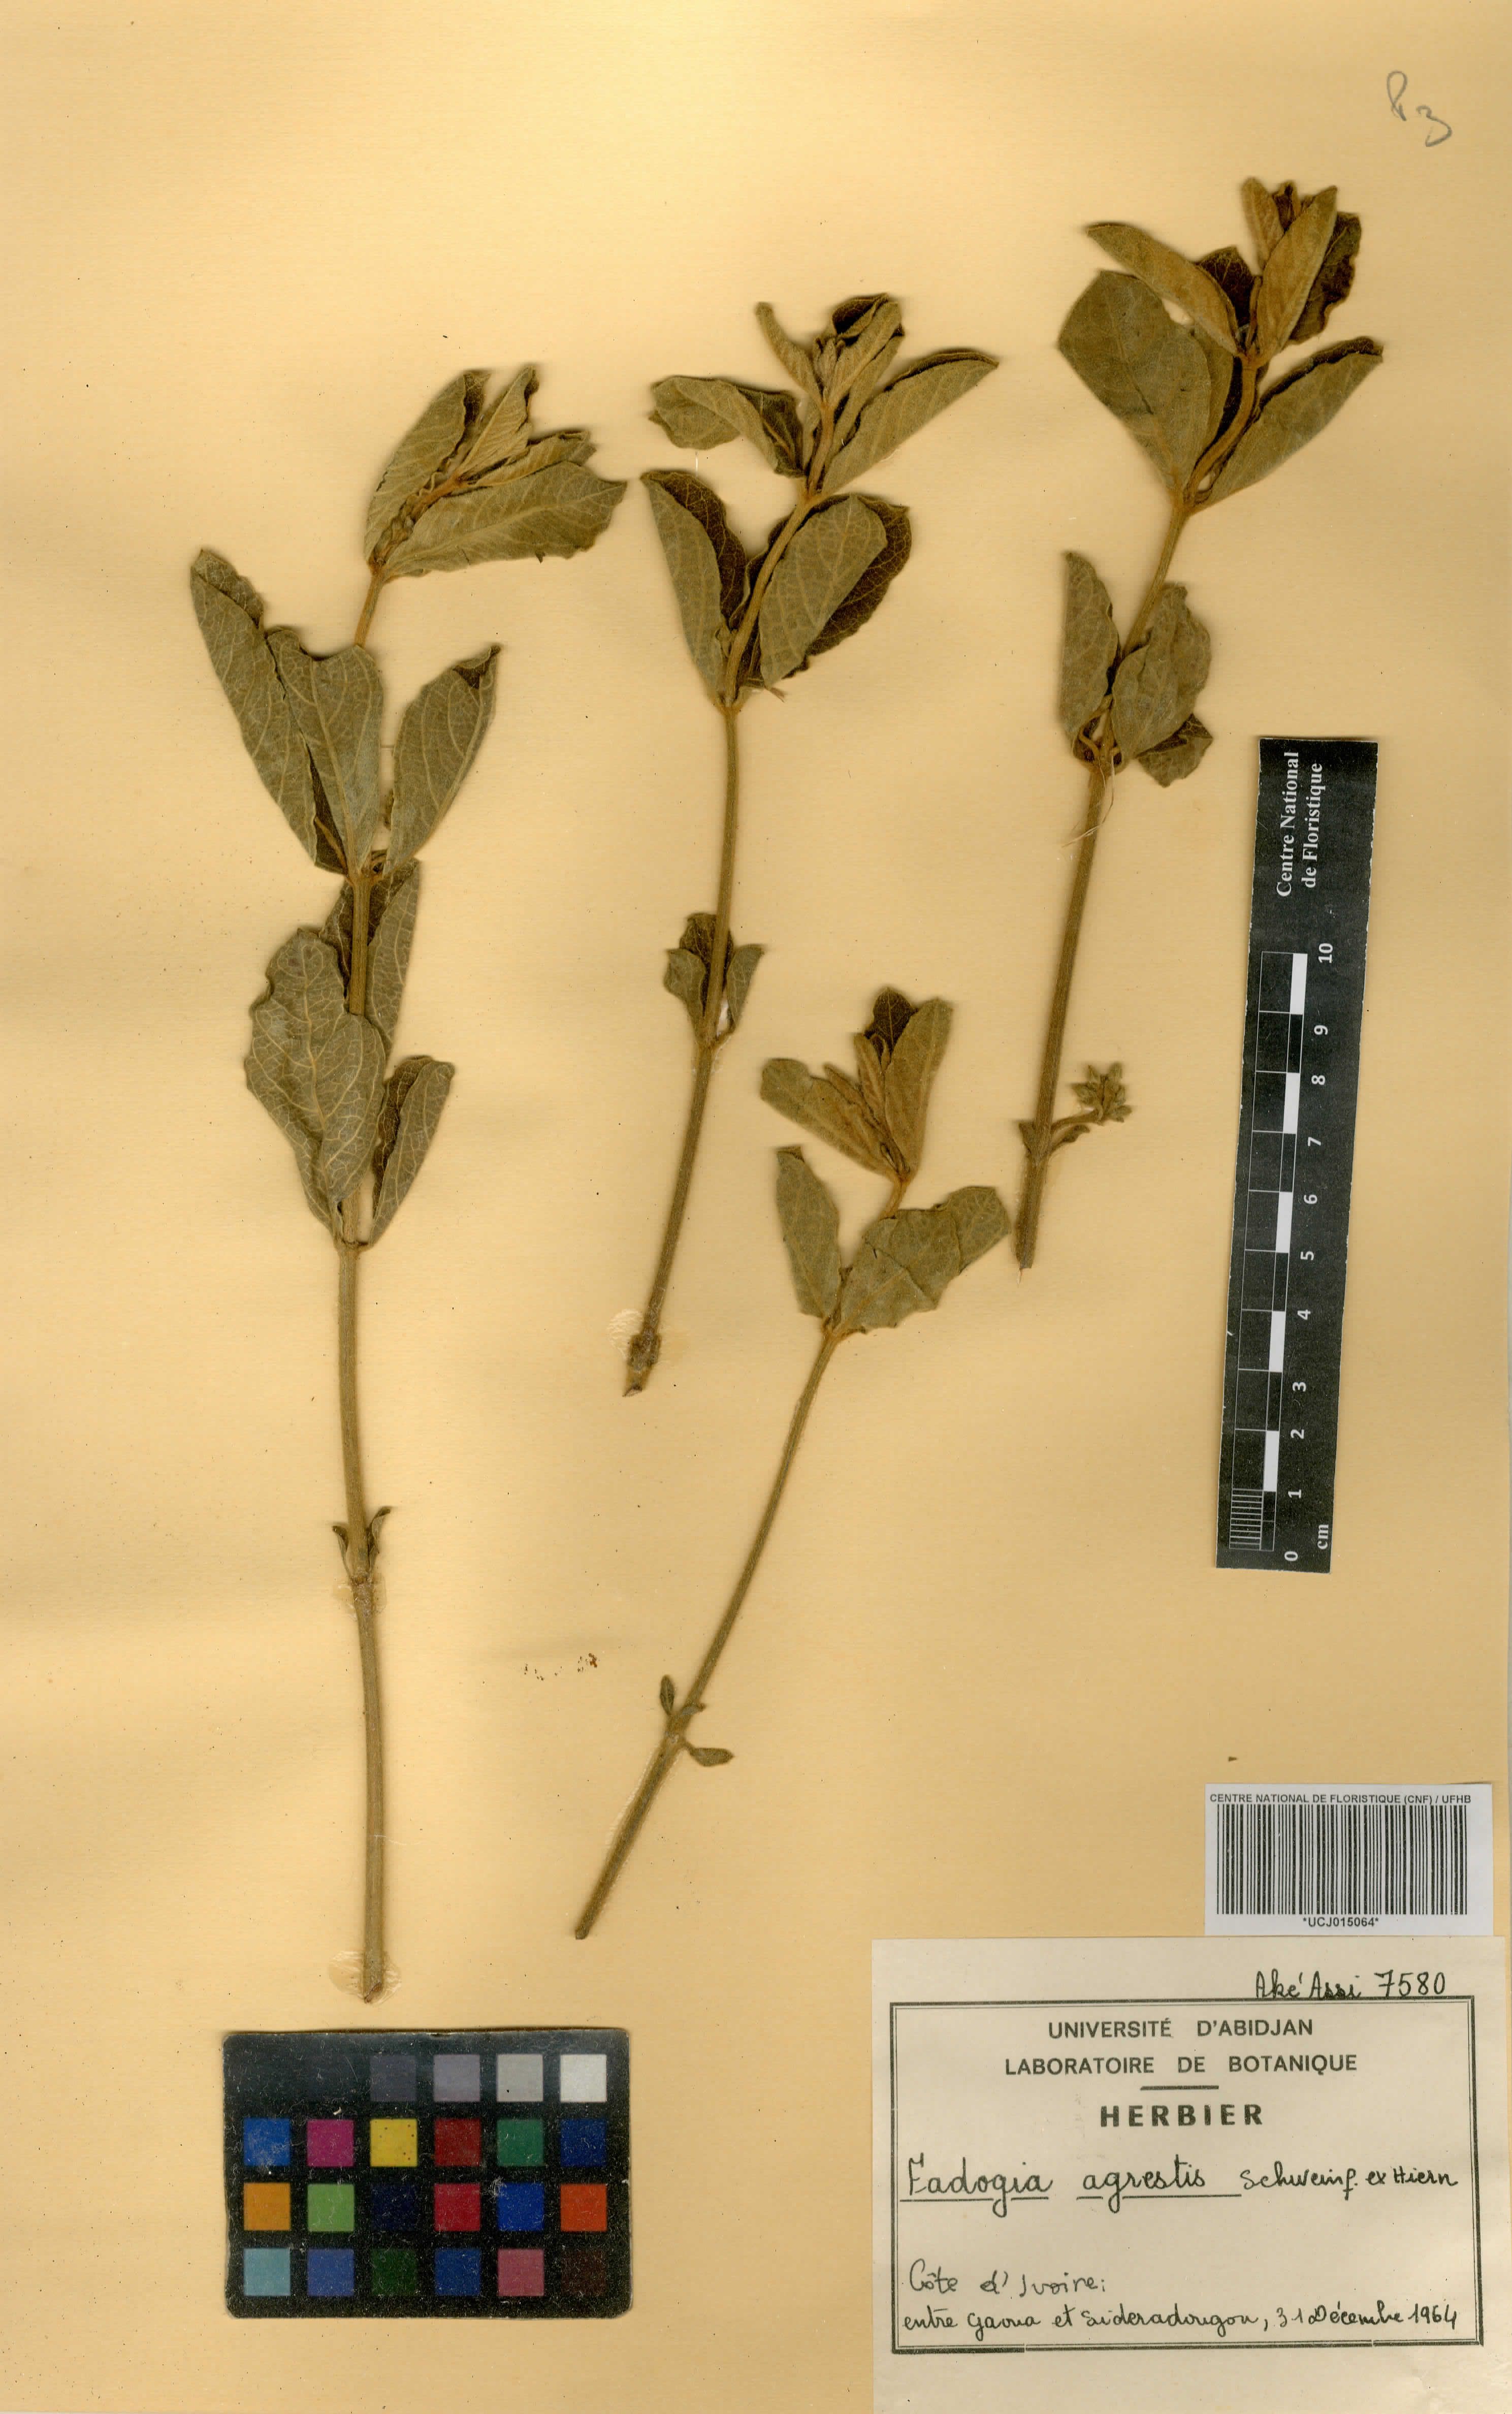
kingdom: Plantae
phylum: Tracheophyta
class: Magnoliopsida
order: Gentianales
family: Rubiaceae
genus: Vangueria
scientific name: Vangueria agrestis
